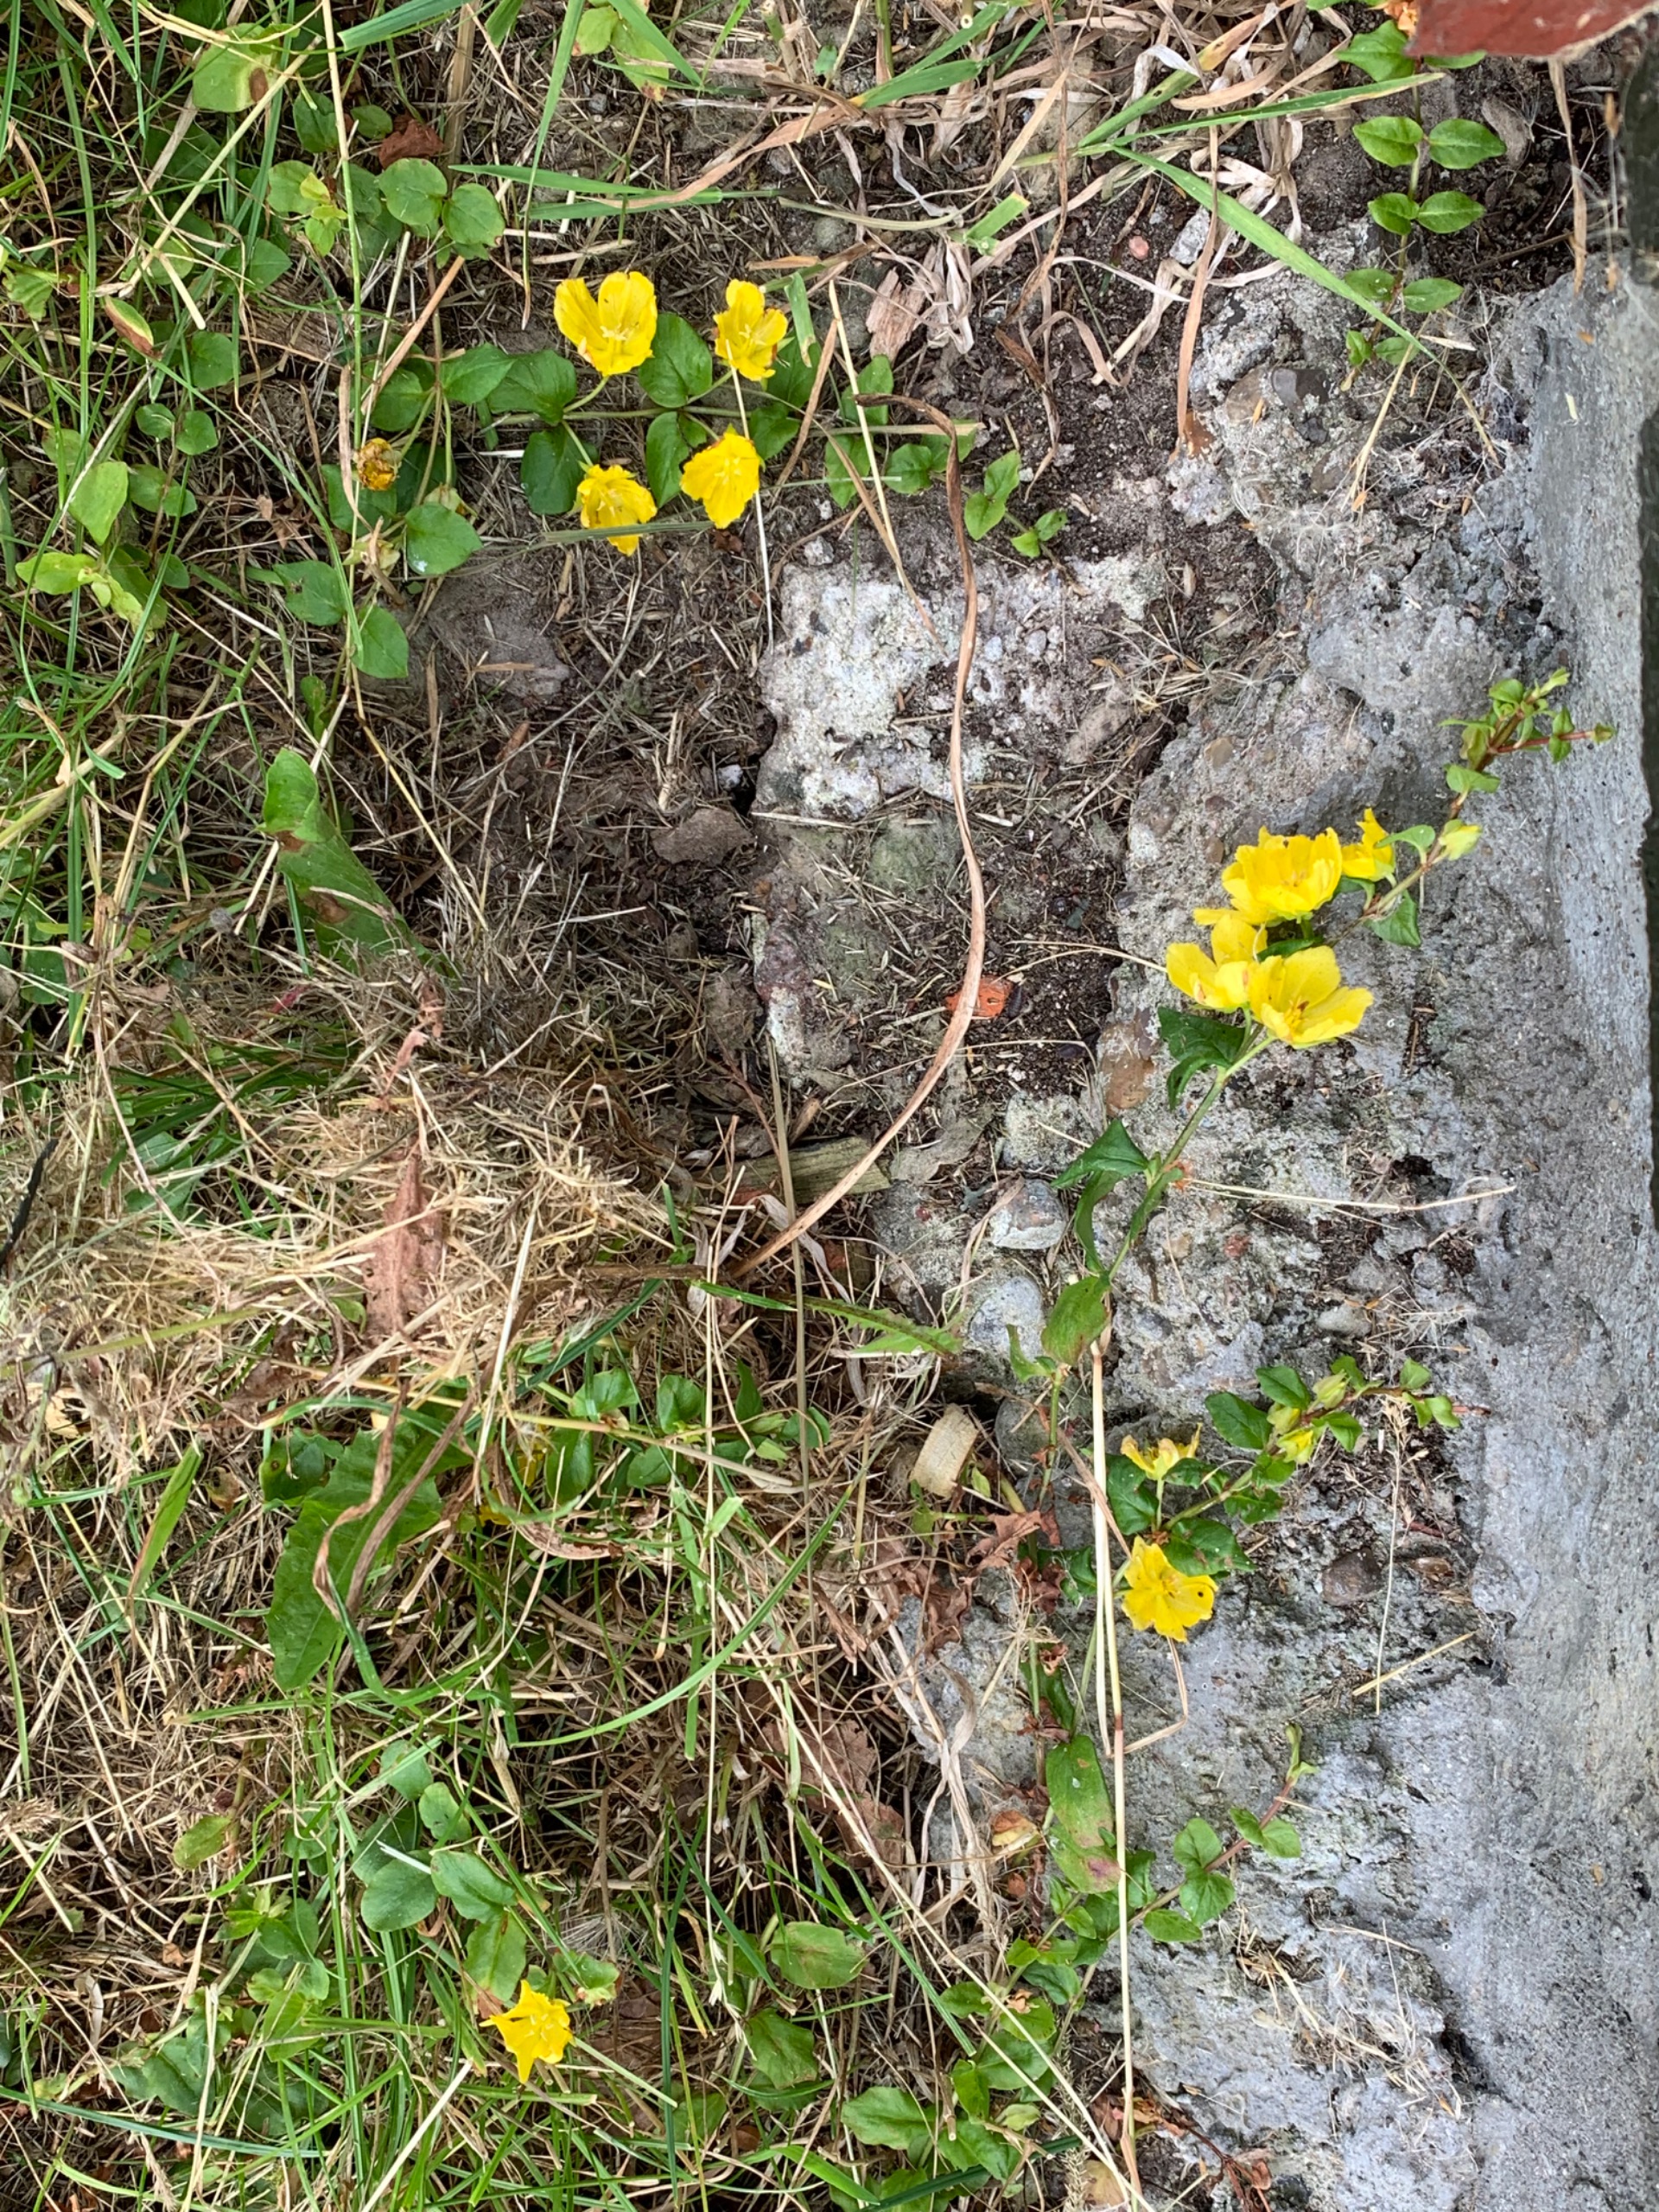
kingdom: Plantae
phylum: Tracheophyta
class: Magnoliopsida
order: Ericales
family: Primulaceae
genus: Lysimachia
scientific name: Lysimachia nummularia
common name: Pengebladet fredløs
